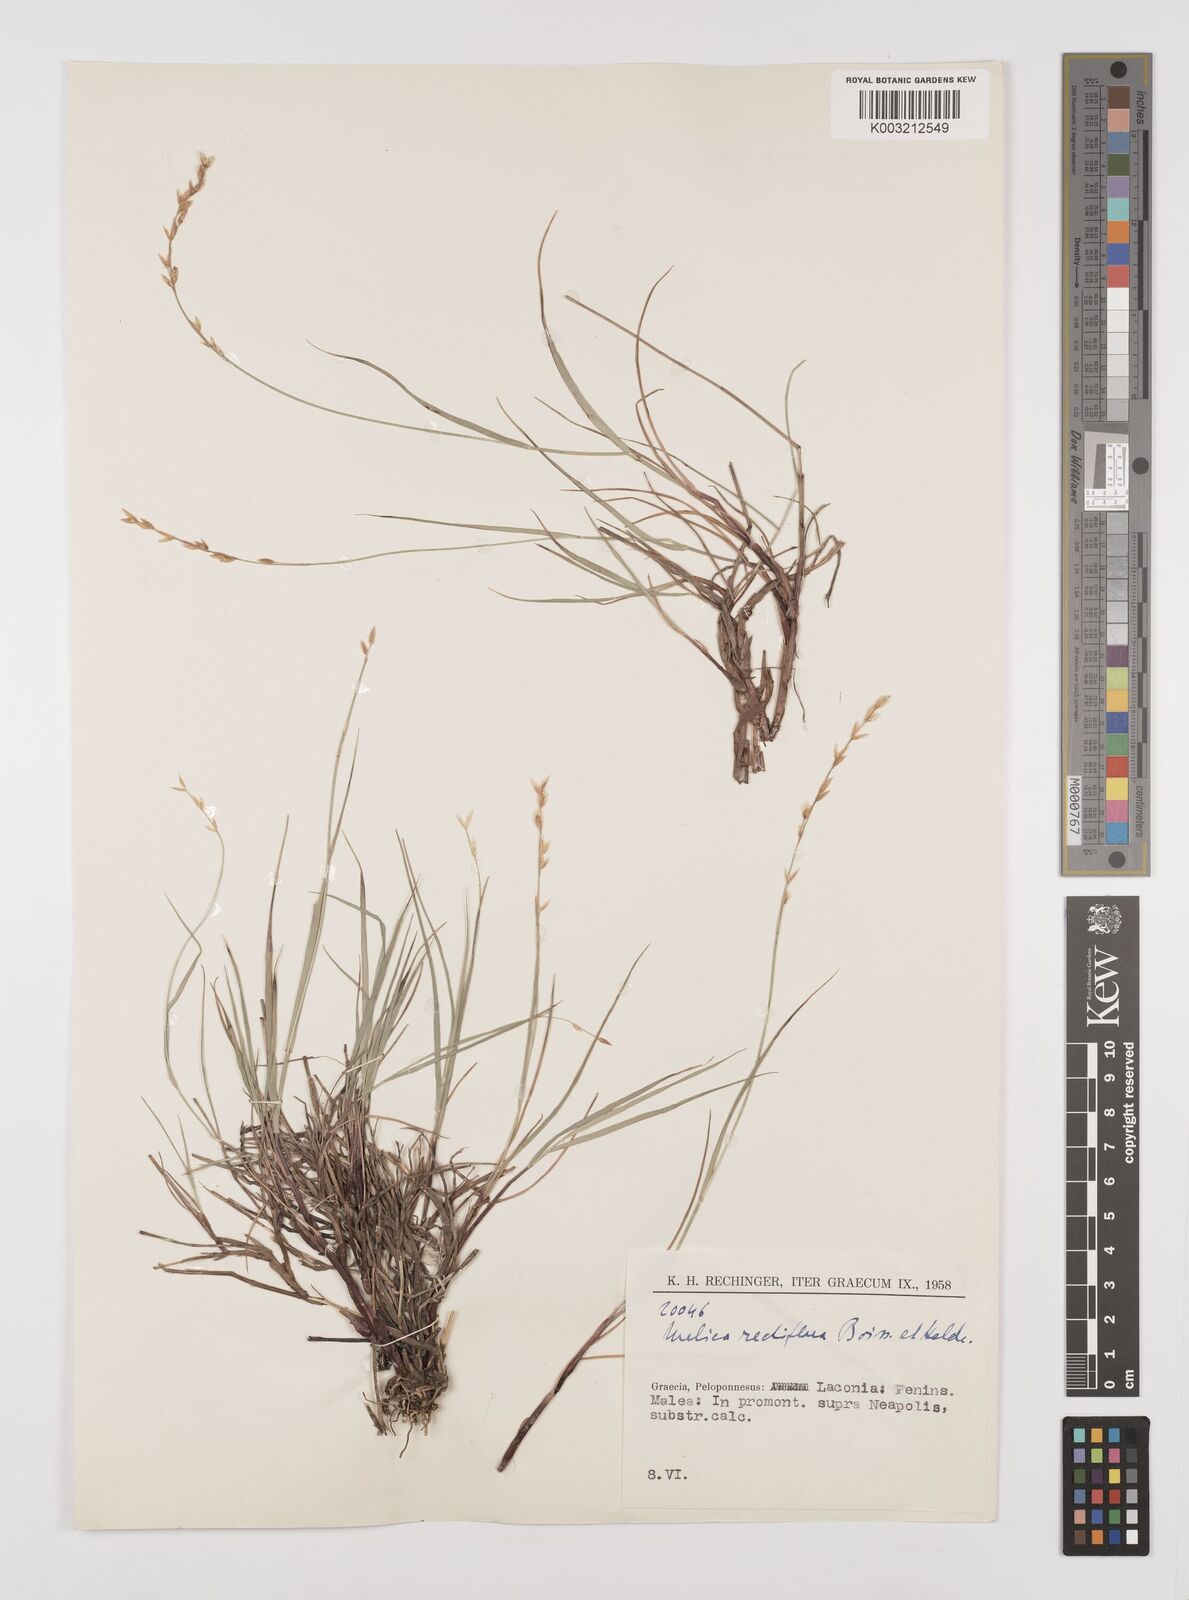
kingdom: Plantae
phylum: Tracheophyta
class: Liliopsida
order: Poales
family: Poaceae
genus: Melica
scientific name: Melica rectiflora
